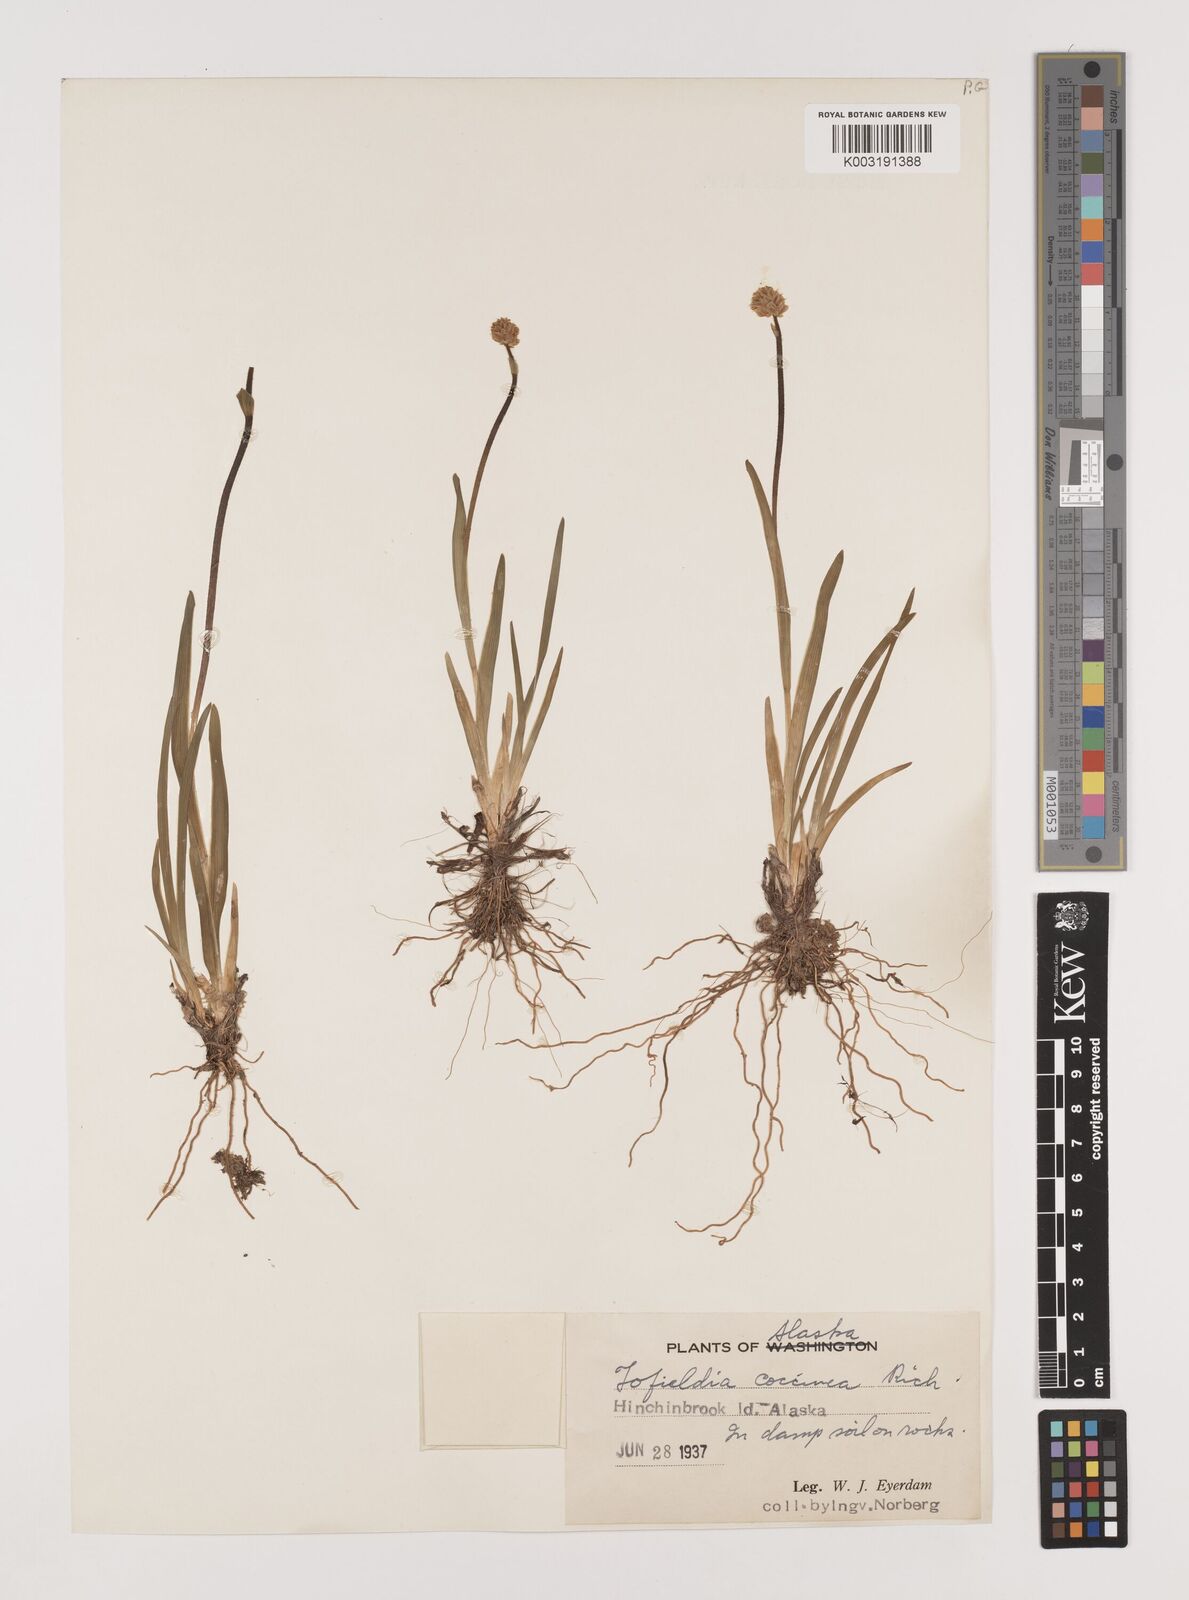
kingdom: Plantae
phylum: Tracheophyta
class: Liliopsida
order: Alismatales
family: Tofieldiaceae
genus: Tofieldia
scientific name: Tofieldia coccinea
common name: Northern false asphodel
